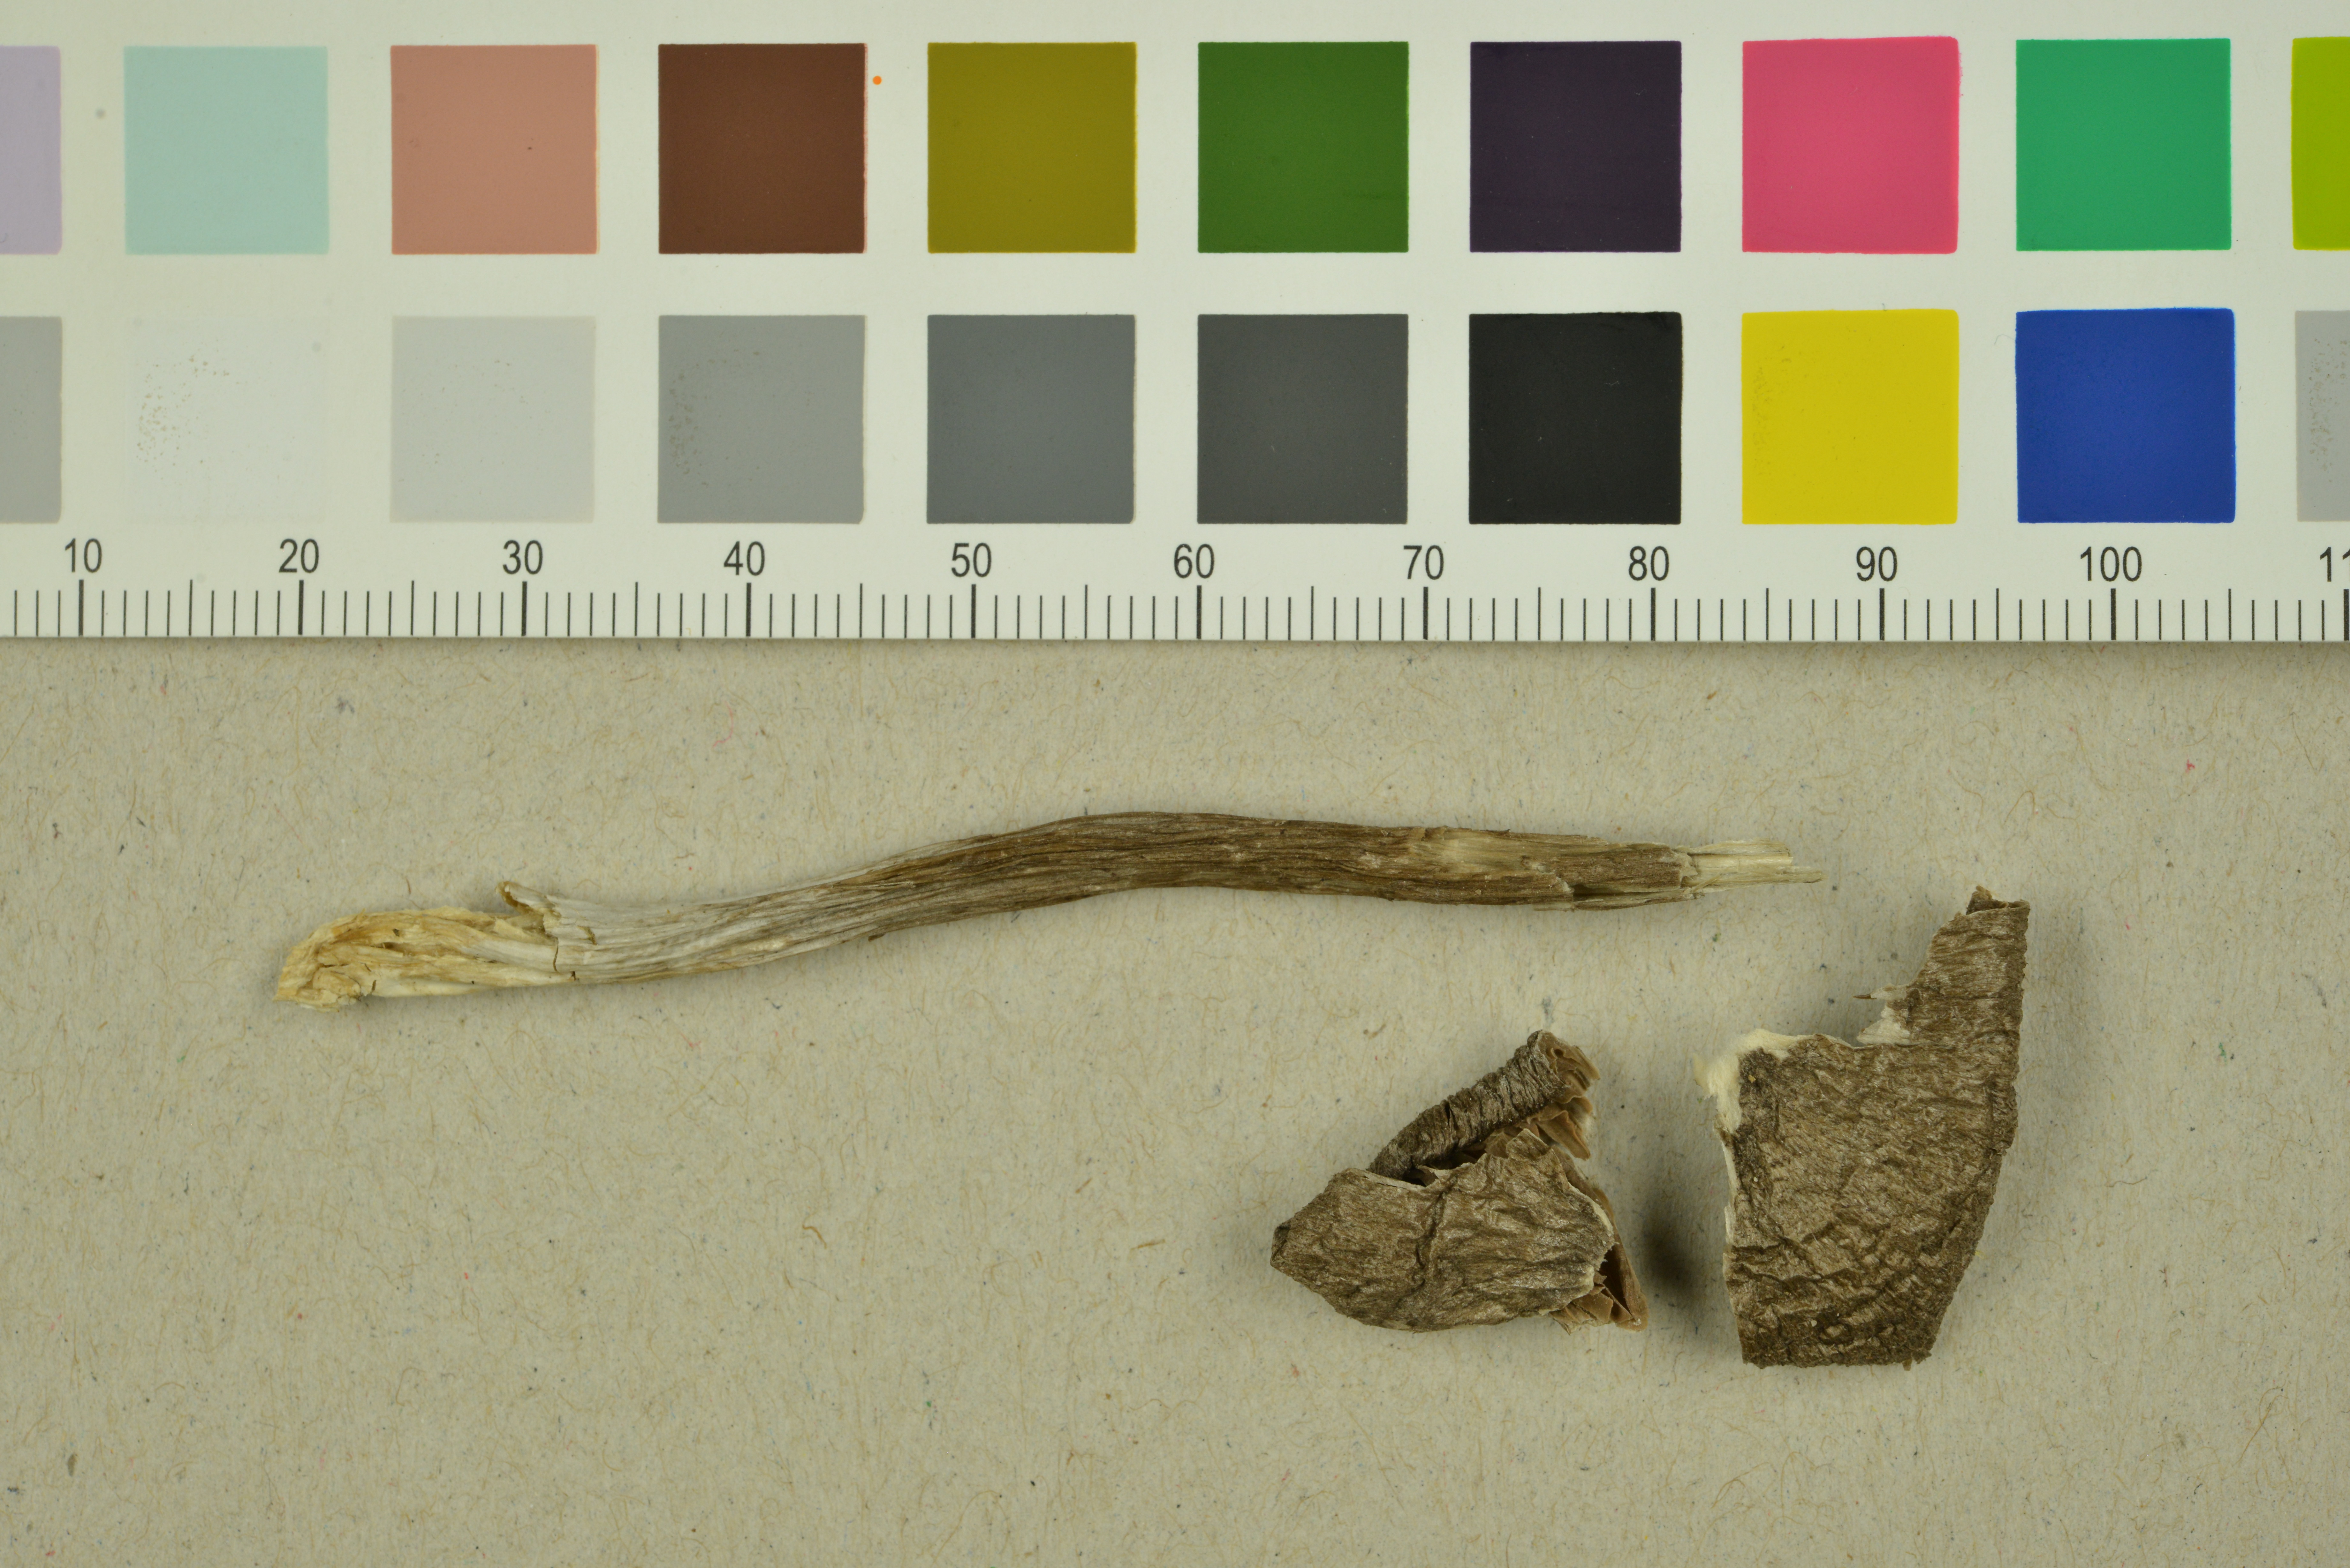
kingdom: Fungi
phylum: Basidiomycota
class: Agaricomycetes
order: Agaricales
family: Entolomataceae
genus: Entoloma
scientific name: Entoloma jubatum
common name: Sepia pinkgill
